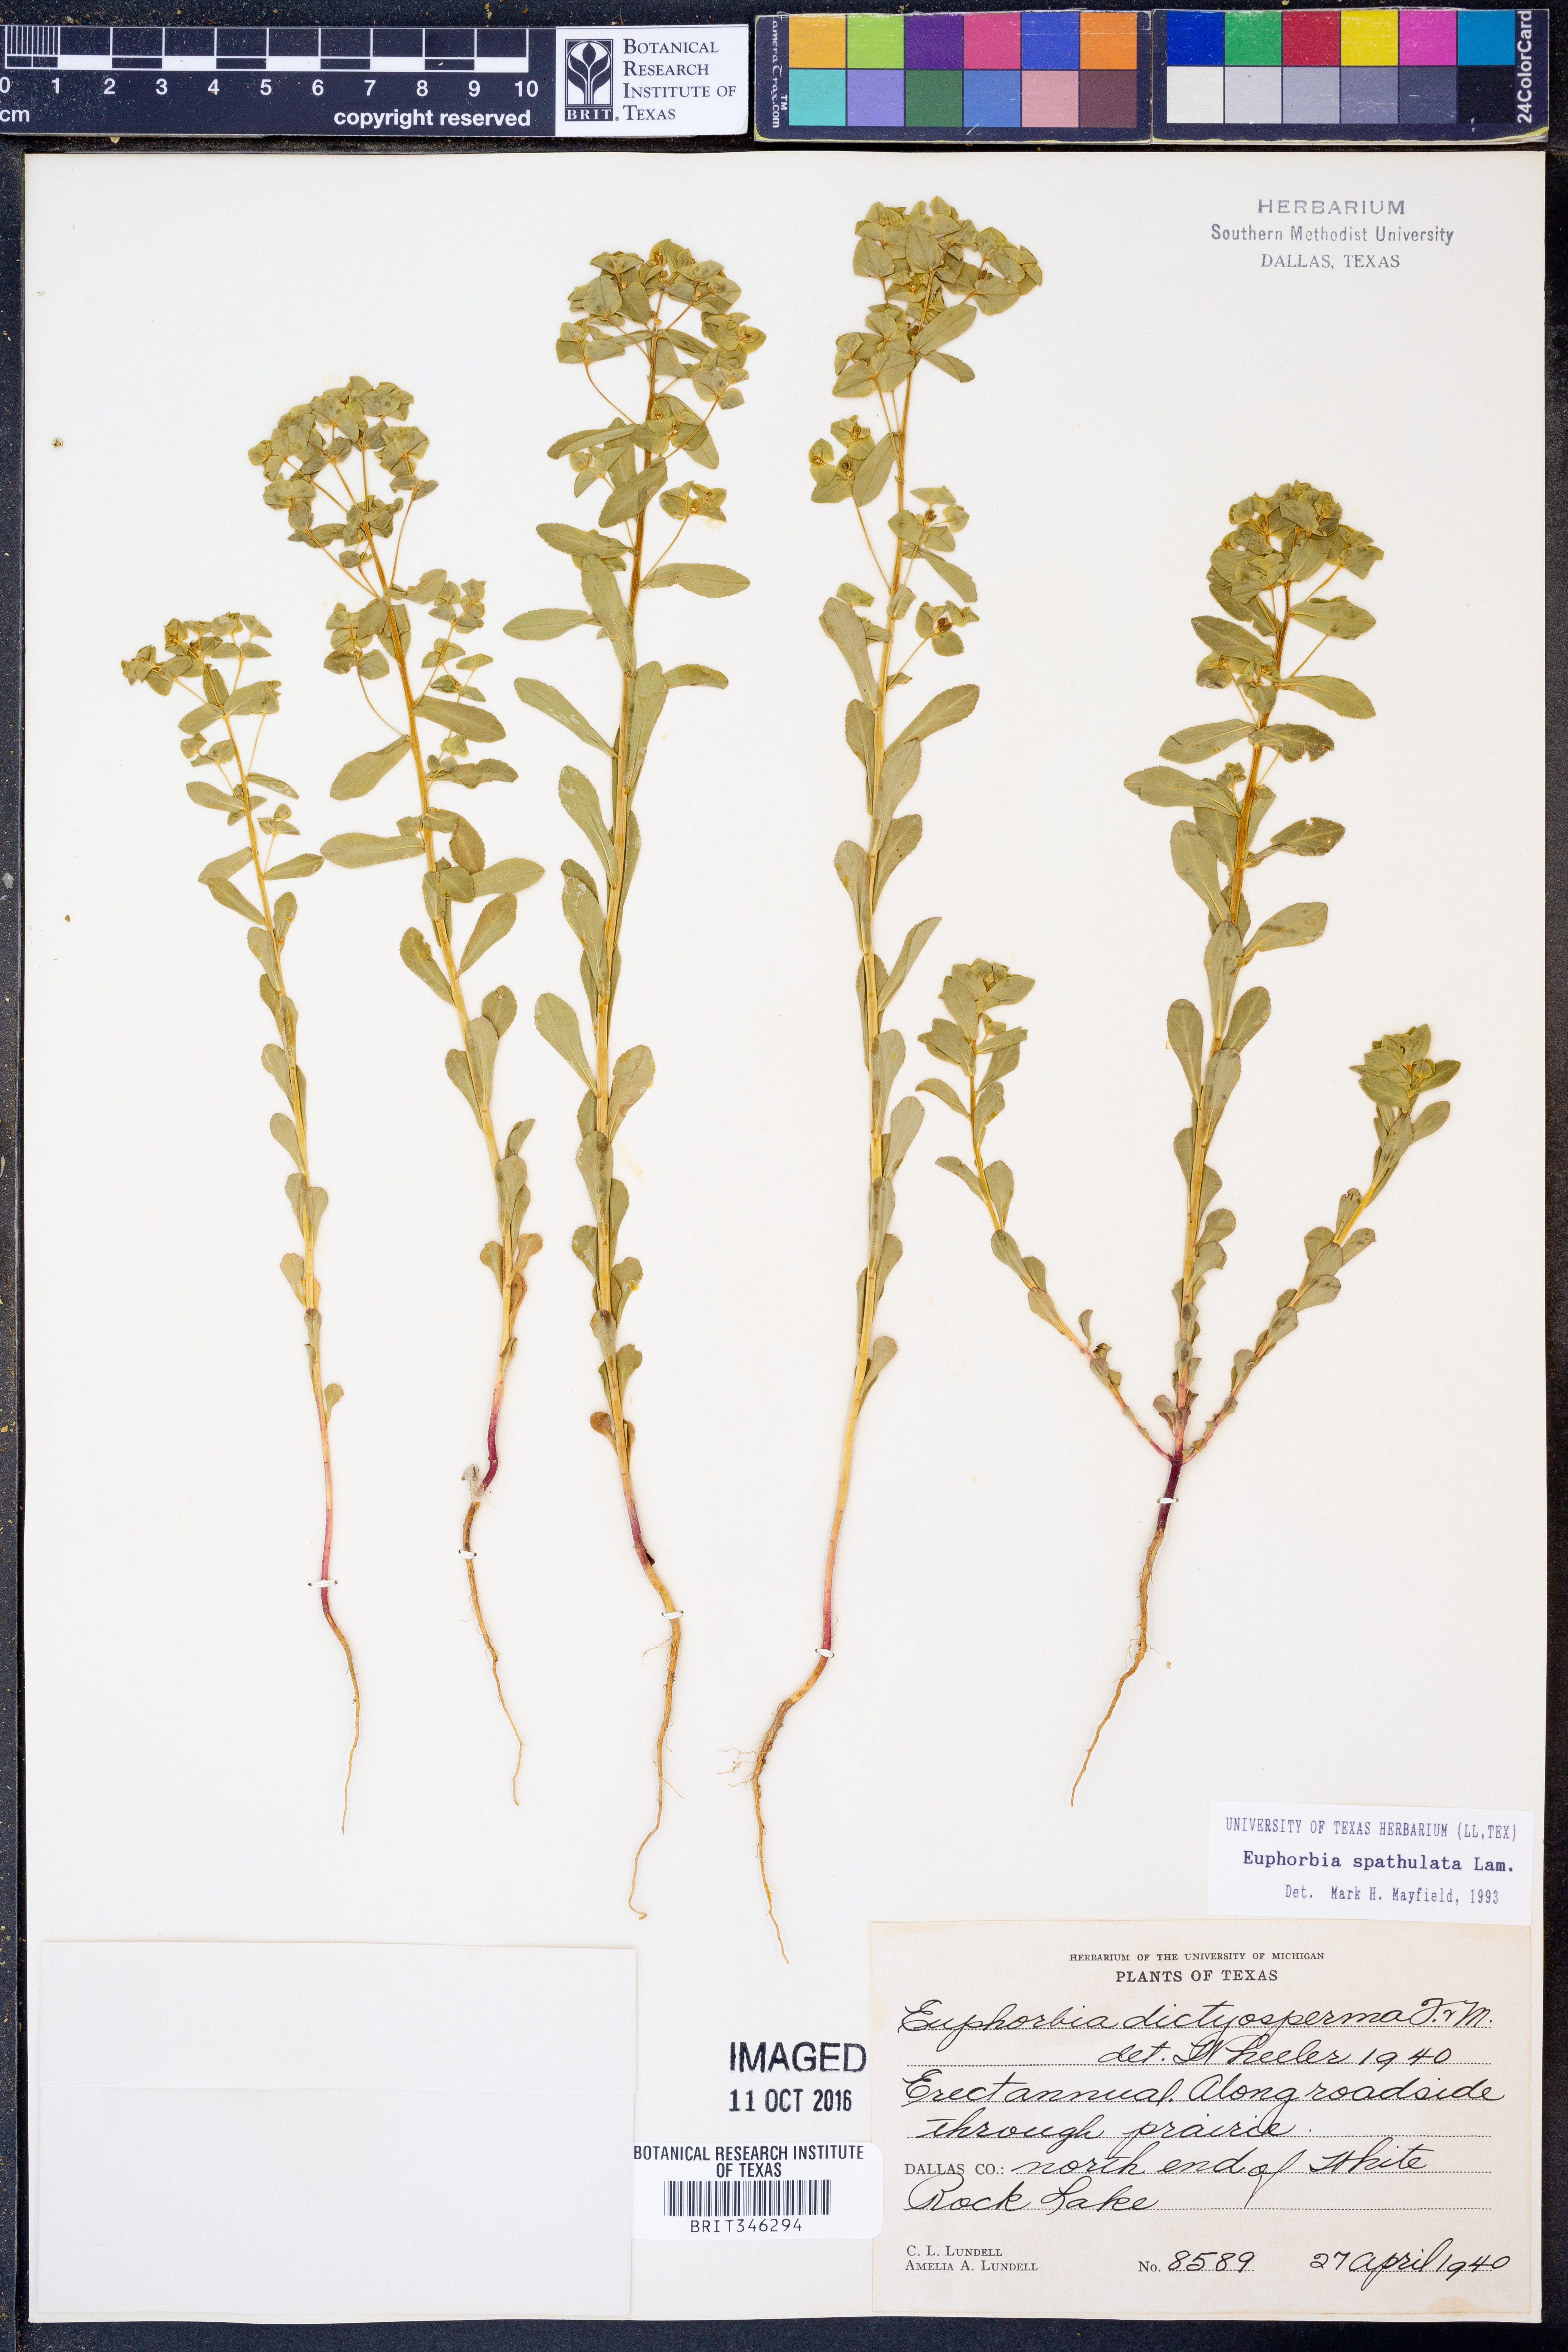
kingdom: Plantae
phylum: Tracheophyta
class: Magnoliopsida
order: Malpighiales
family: Euphorbiaceae
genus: Euphorbia
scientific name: Euphorbia spathulata
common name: Blunt spurge
